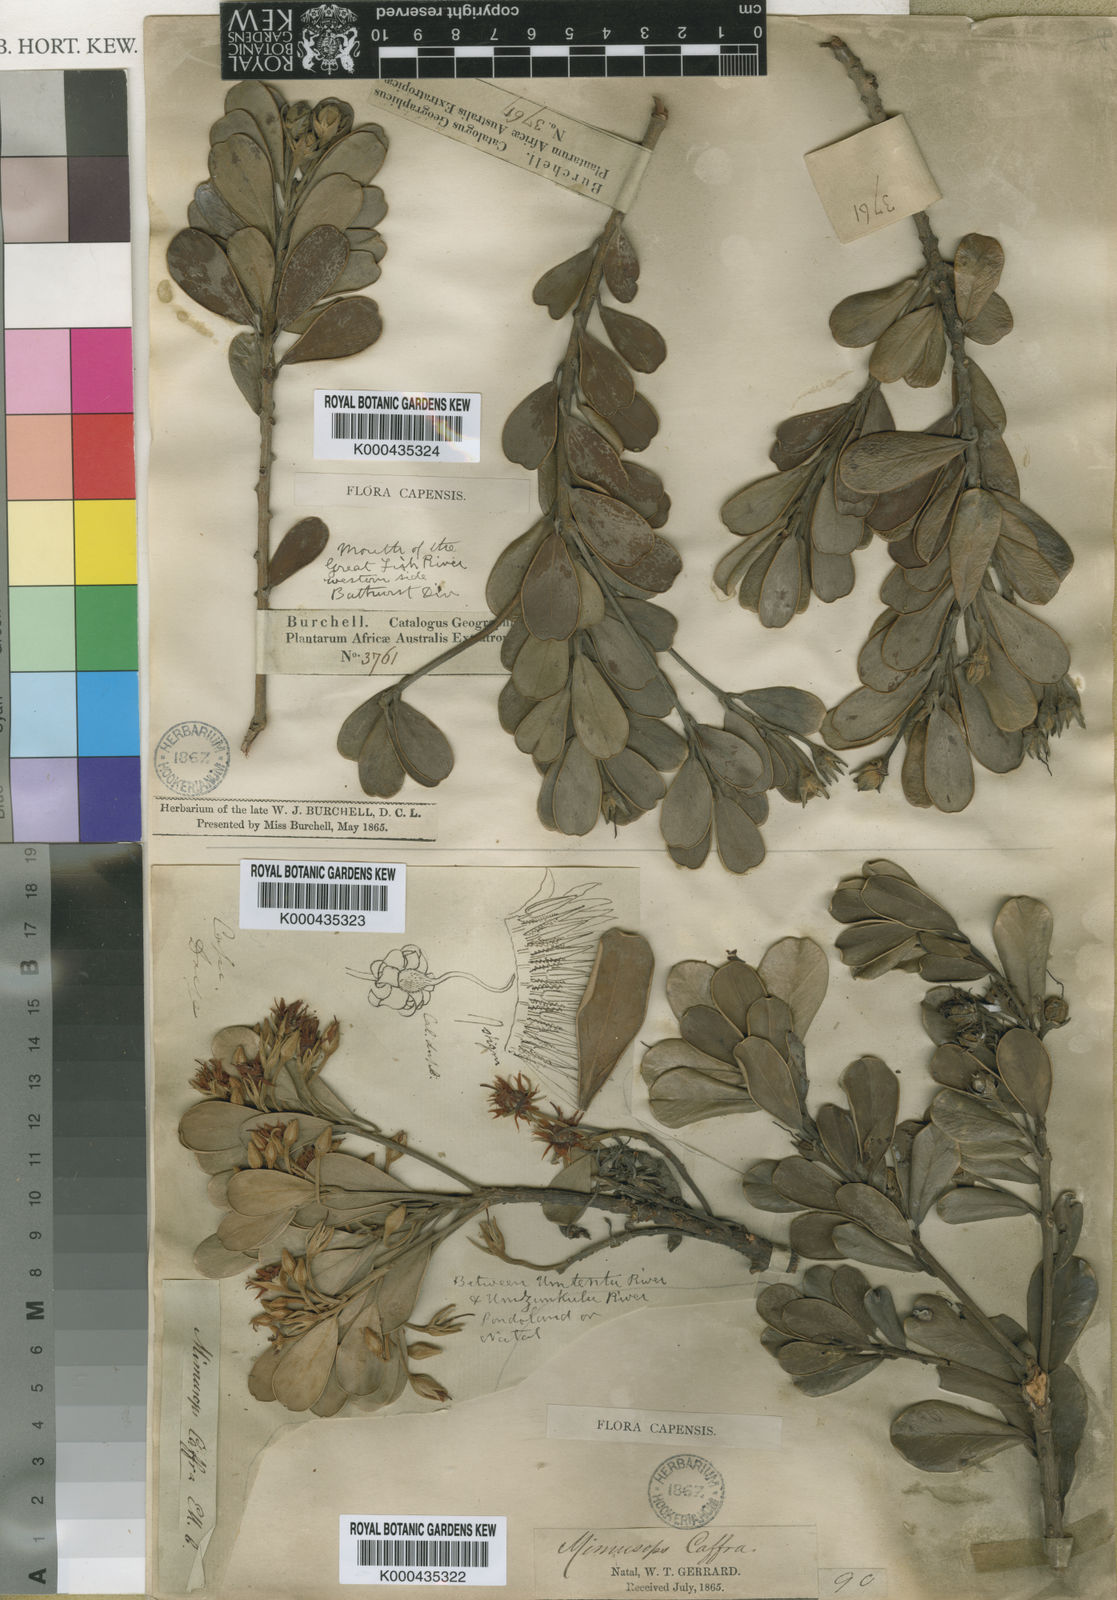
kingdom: Plantae
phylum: Tracheophyta
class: Magnoliopsida
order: Ericales
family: Sapotaceae
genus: Mimusops
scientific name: Mimusops caffra
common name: Coastal red milkwood
